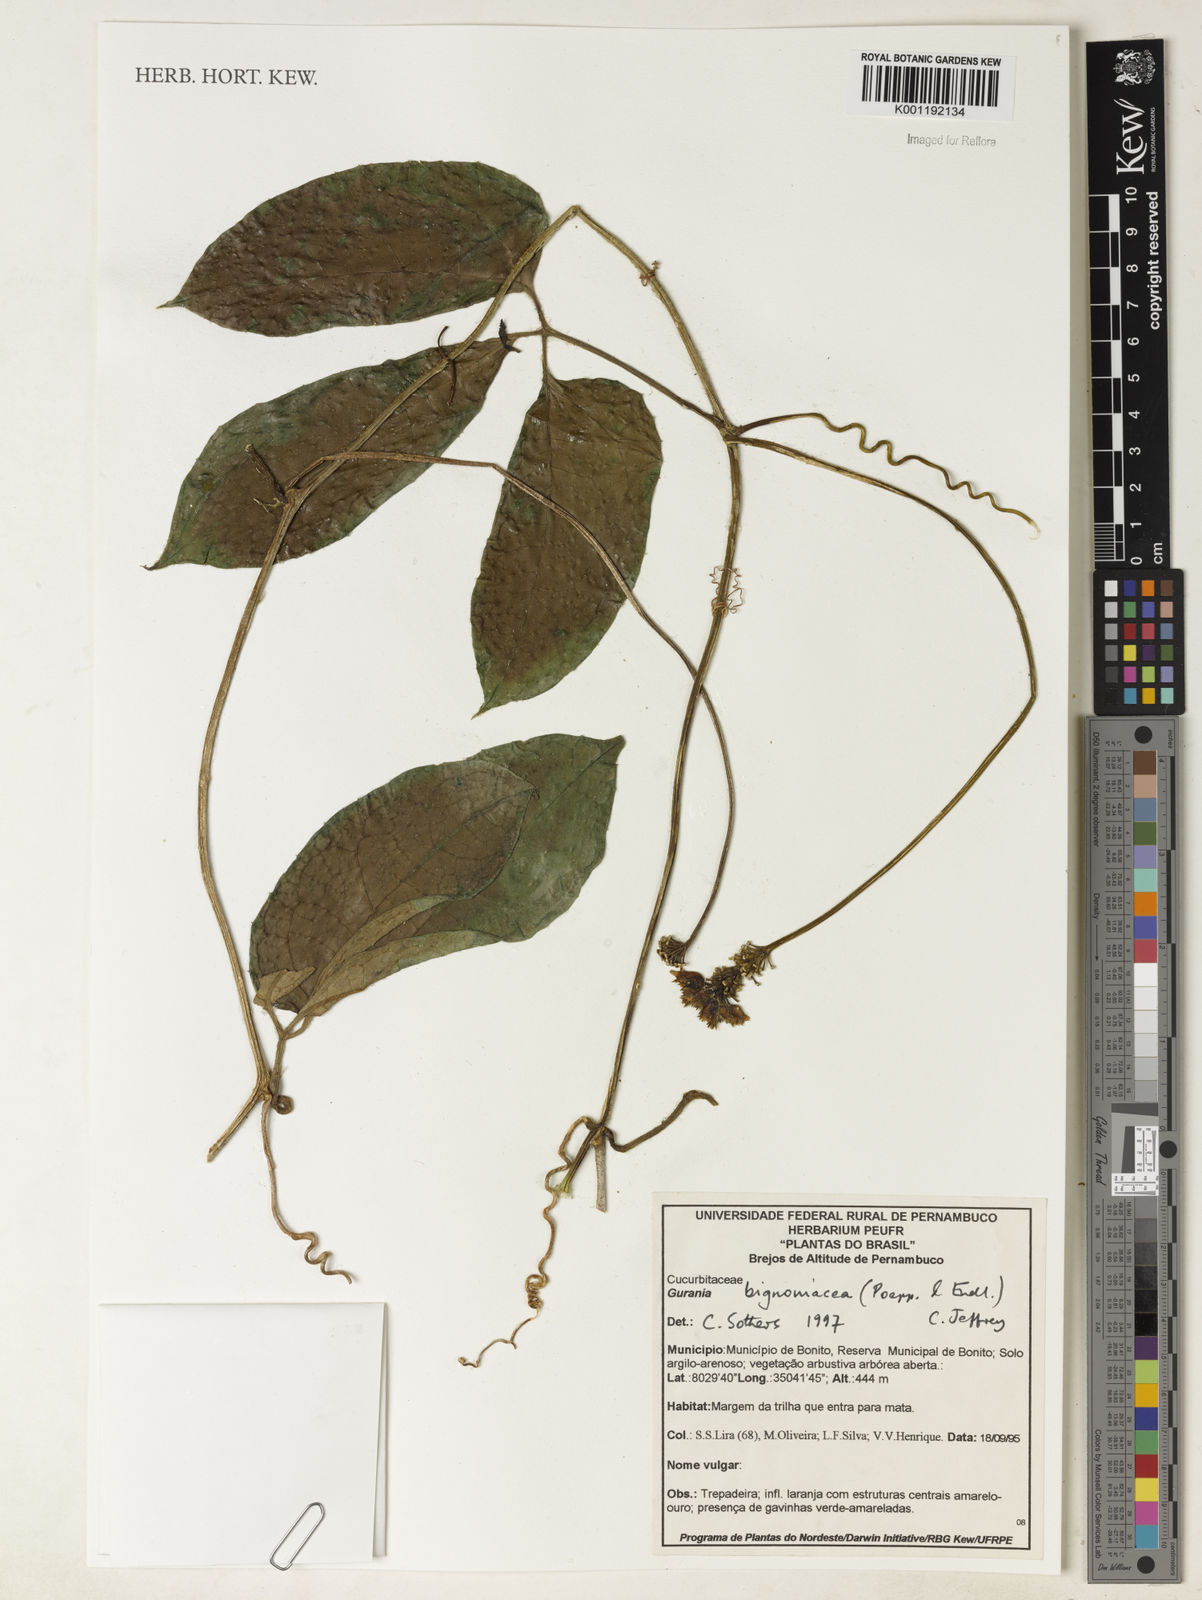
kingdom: Plantae
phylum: Tracheophyta
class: Magnoliopsida
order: Cucurbitales
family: Cucurbitaceae
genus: Gurania
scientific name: Gurania bignoniacea
